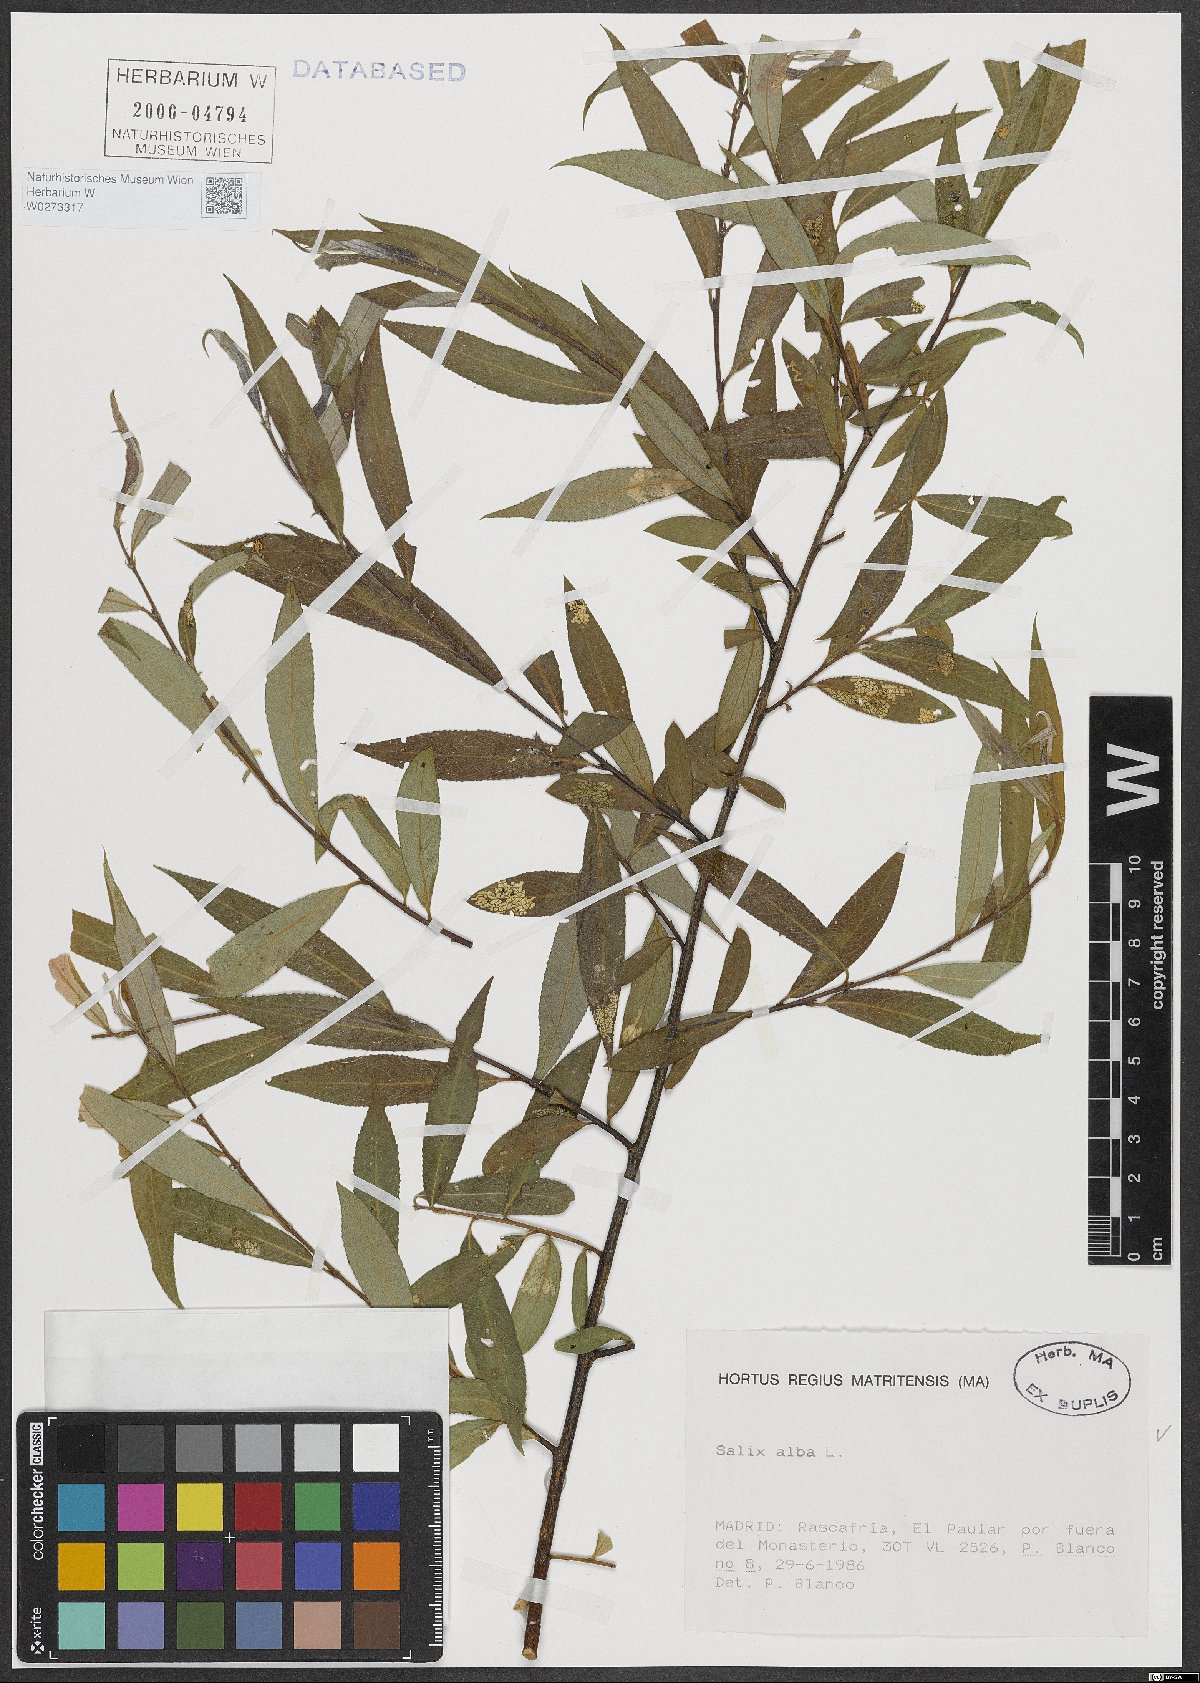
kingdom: Plantae
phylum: Tracheophyta
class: Magnoliopsida
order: Malpighiales
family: Salicaceae
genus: Salix
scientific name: Salix alba
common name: White willow
